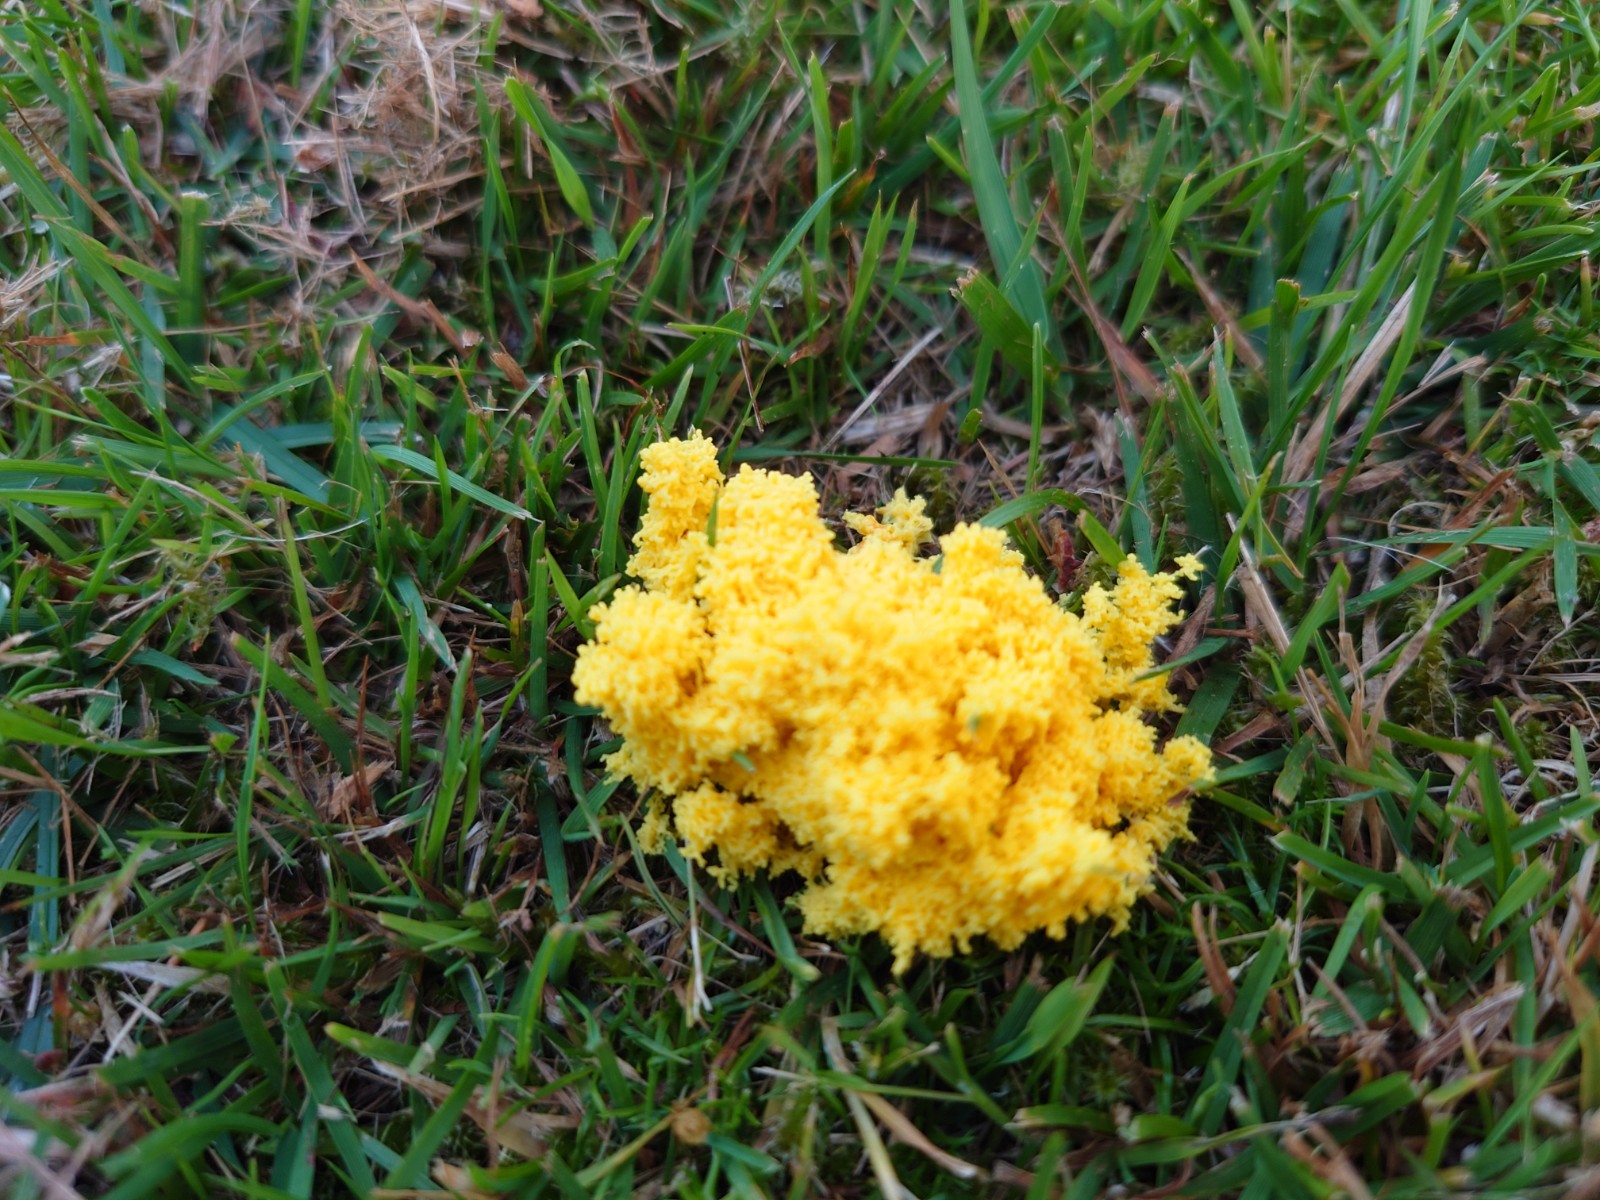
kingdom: Protozoa
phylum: Mycetozoa
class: Myxomycetes
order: Physarales
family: Physaraceae
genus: Fuligo
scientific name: Fuligo septica
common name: gul troldsmør
